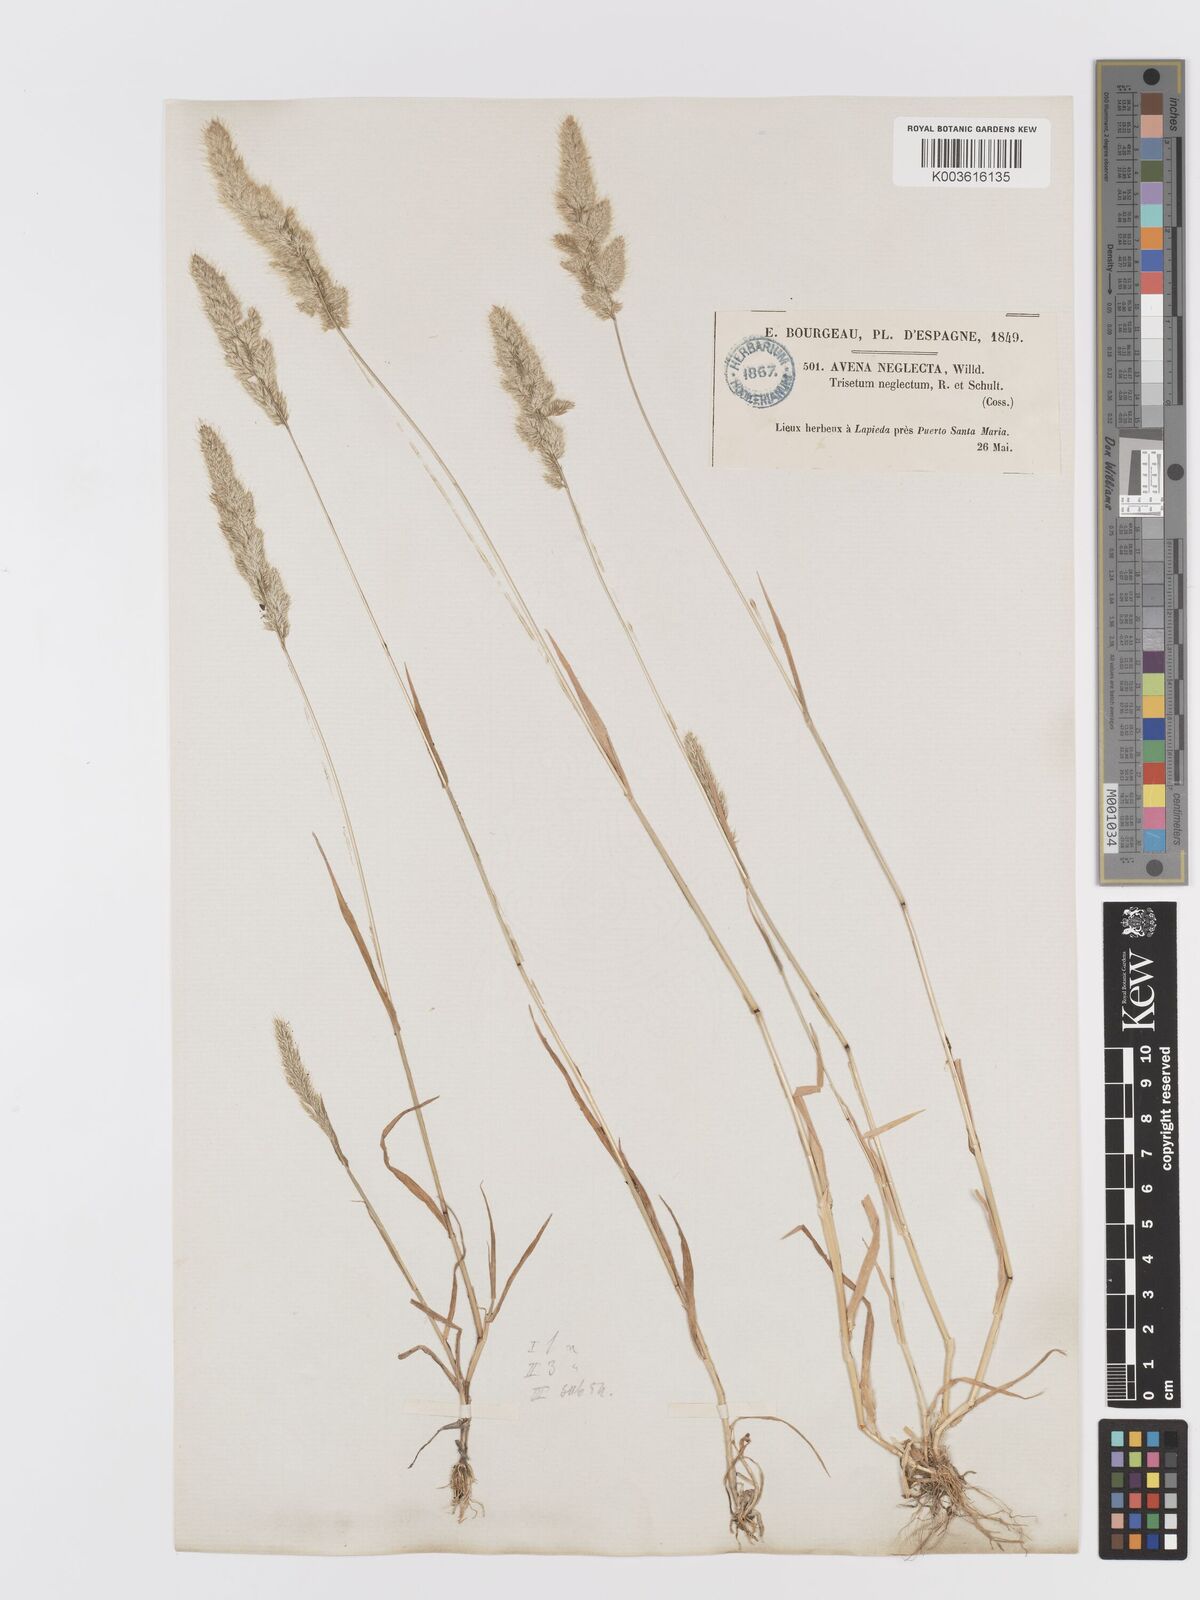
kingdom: Plantae
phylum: Tracheophyta
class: Liliopsida
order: Poales
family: Poaceae
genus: Trisetaria
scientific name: Trisetaria panicea
